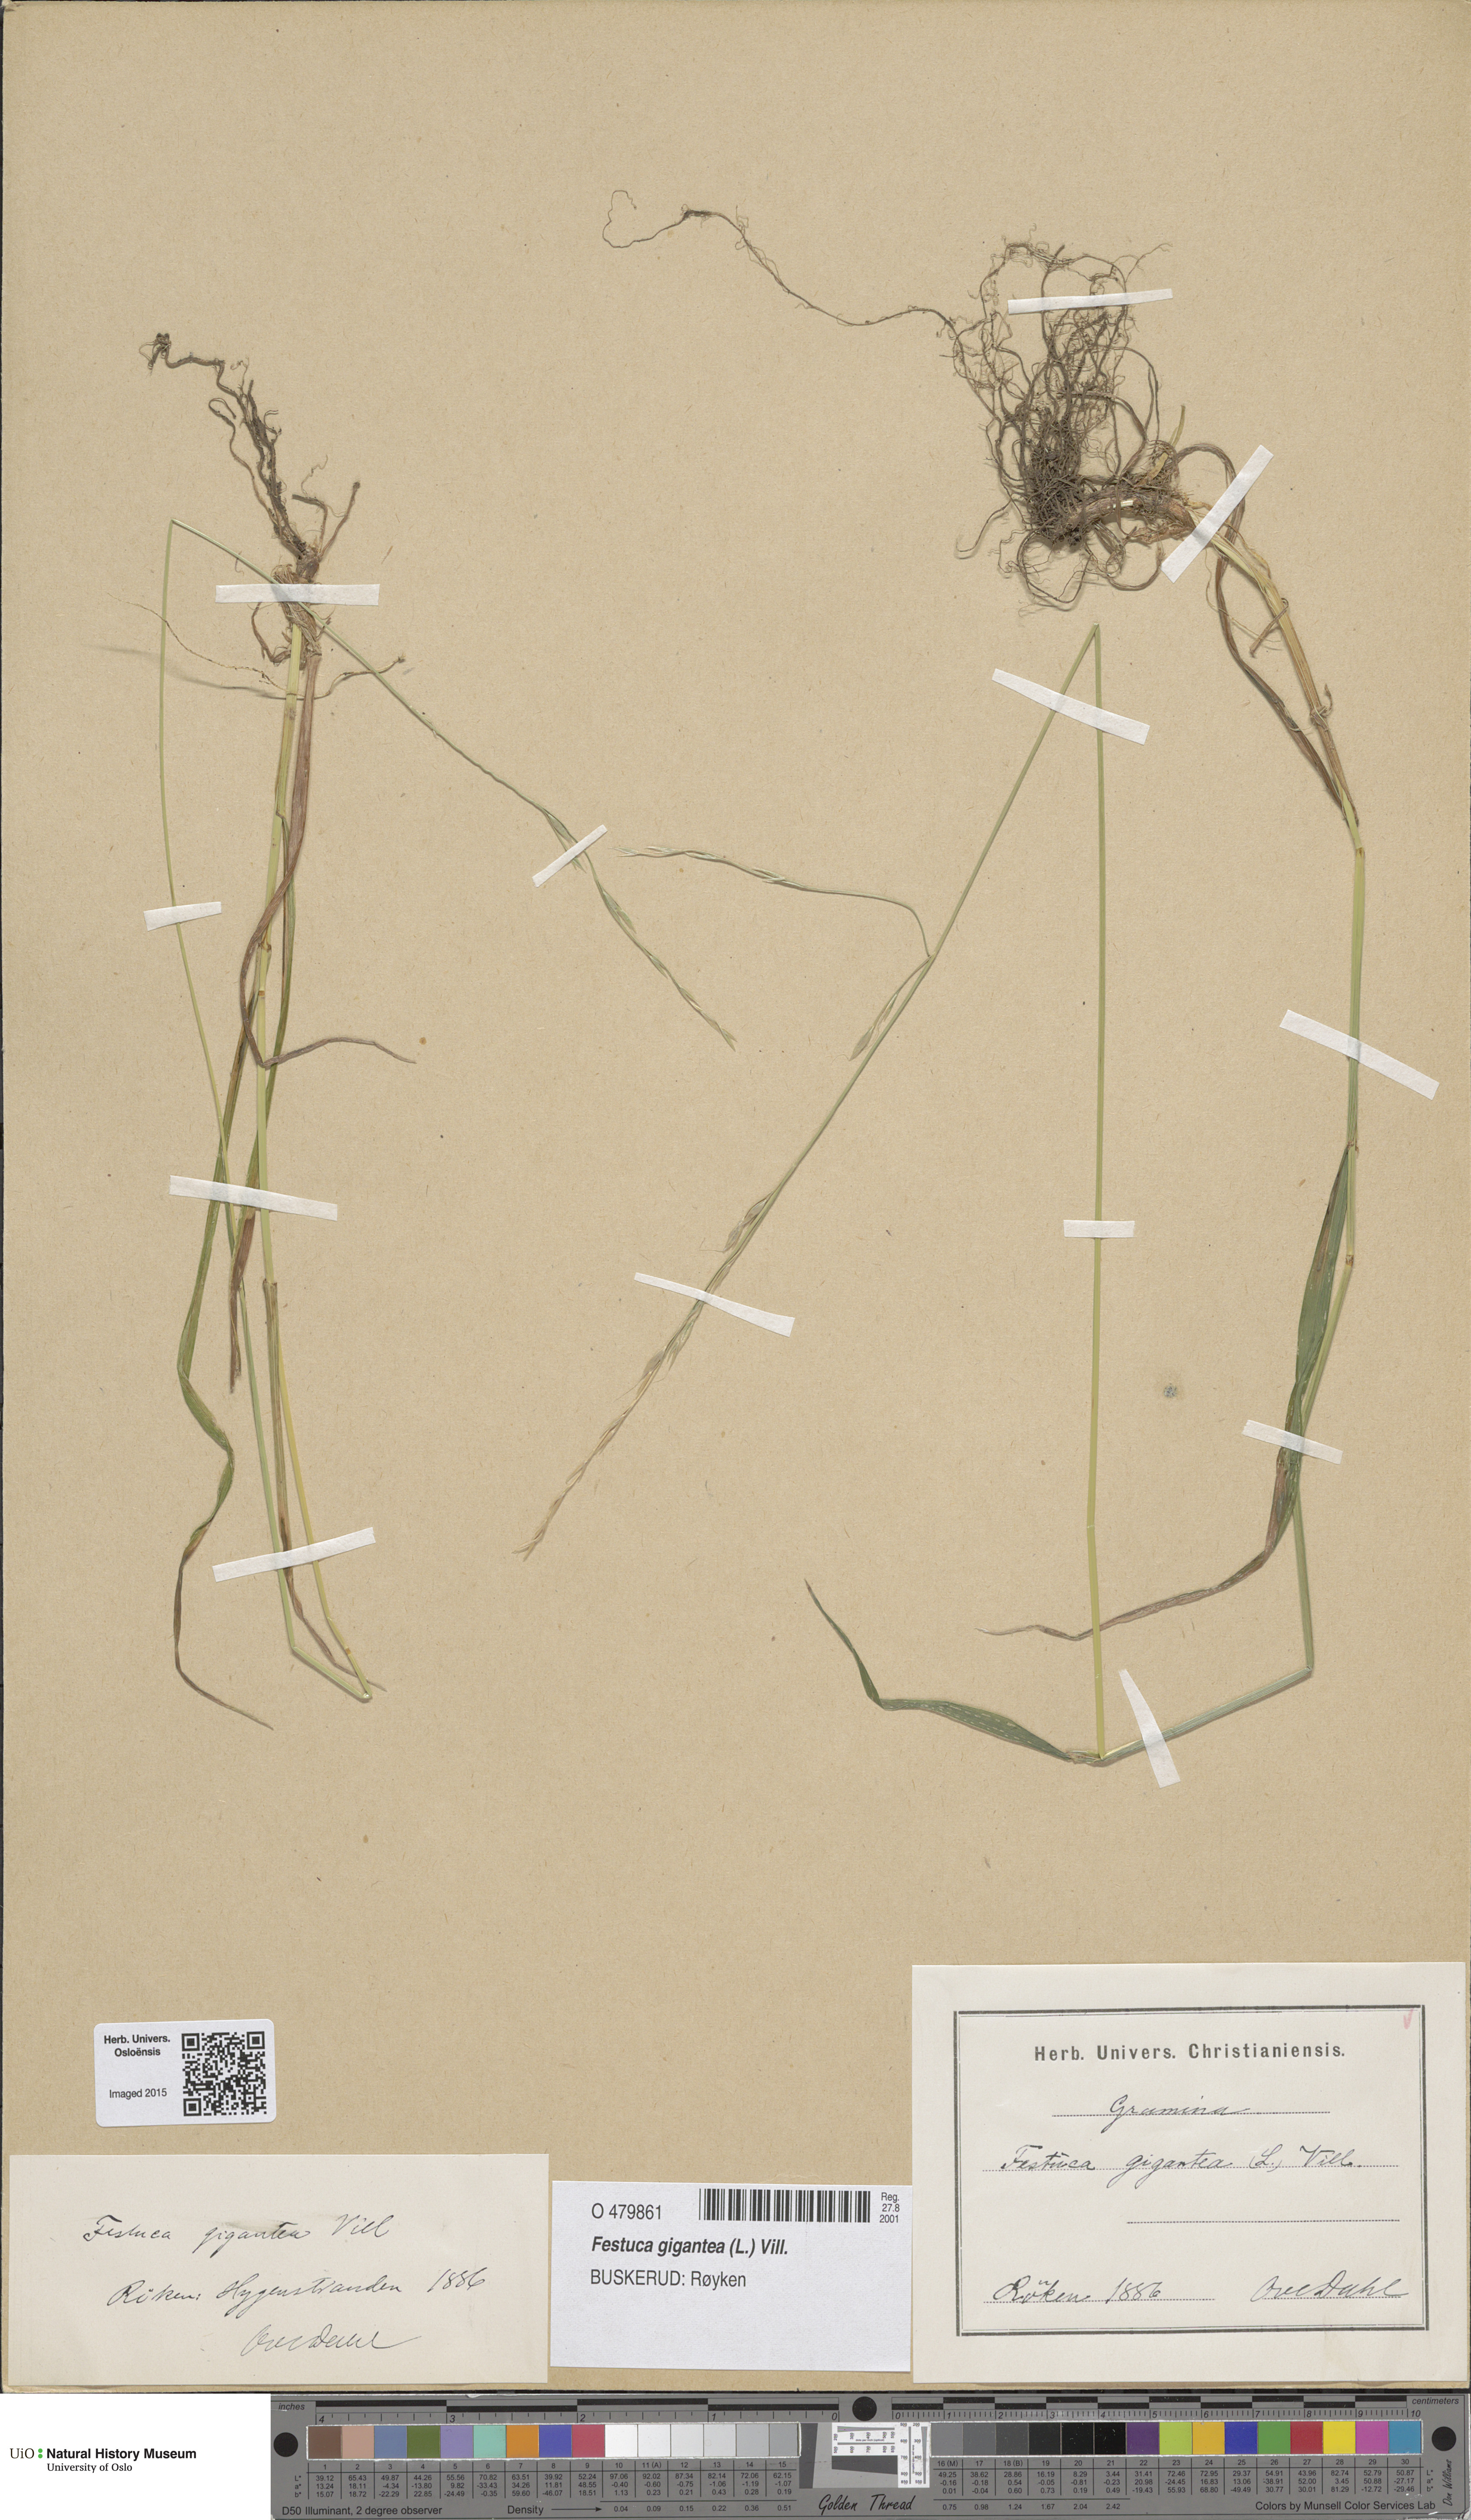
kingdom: Plantae
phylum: Tracheophyta
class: Liliopsida
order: Poales
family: Poaceae
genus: Lolium
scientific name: Lolium giganteum
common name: Giant fescue
